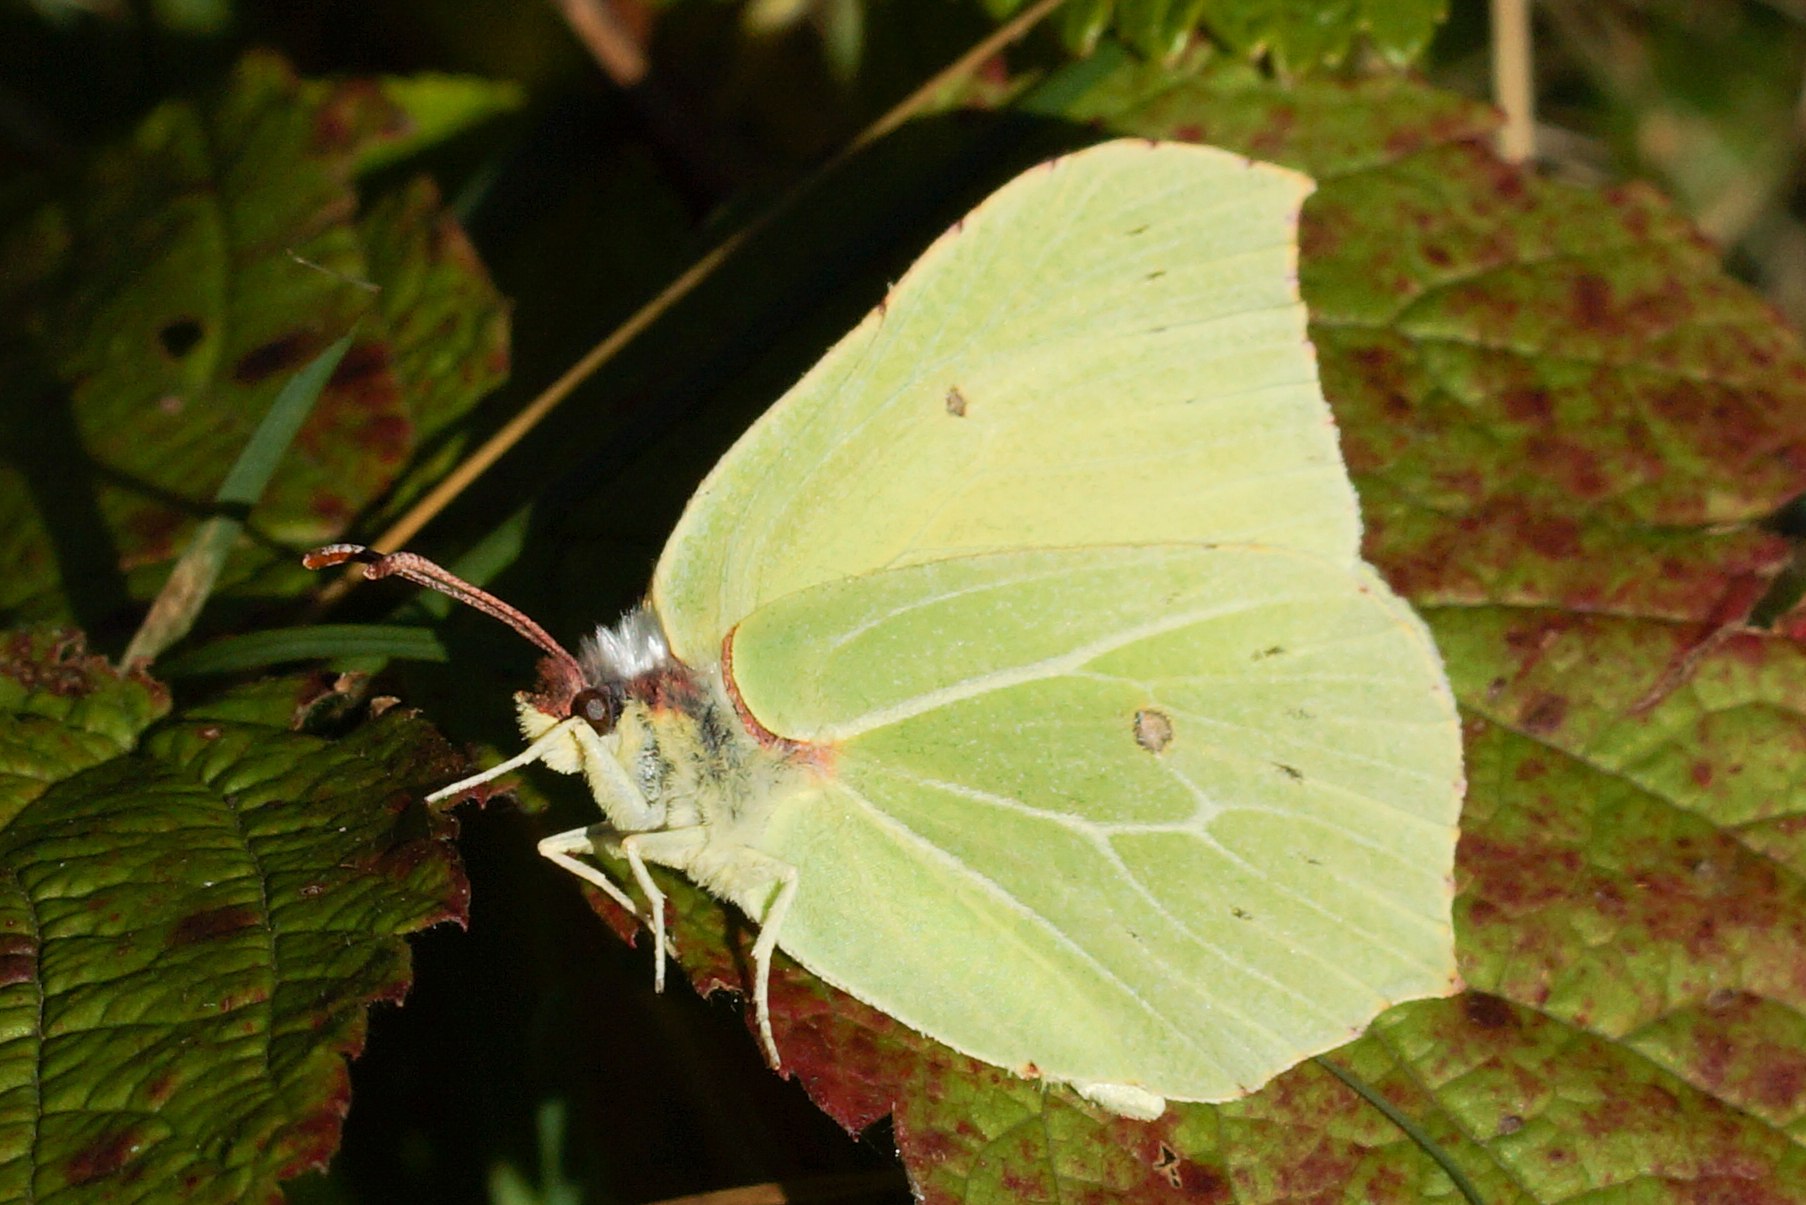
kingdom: Animalia
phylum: Arthropoda
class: Insecta
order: Lepidoptera
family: Pieridae
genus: Gonepteryx
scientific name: Gonepteryx rhamni
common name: Citronsommerfugl
